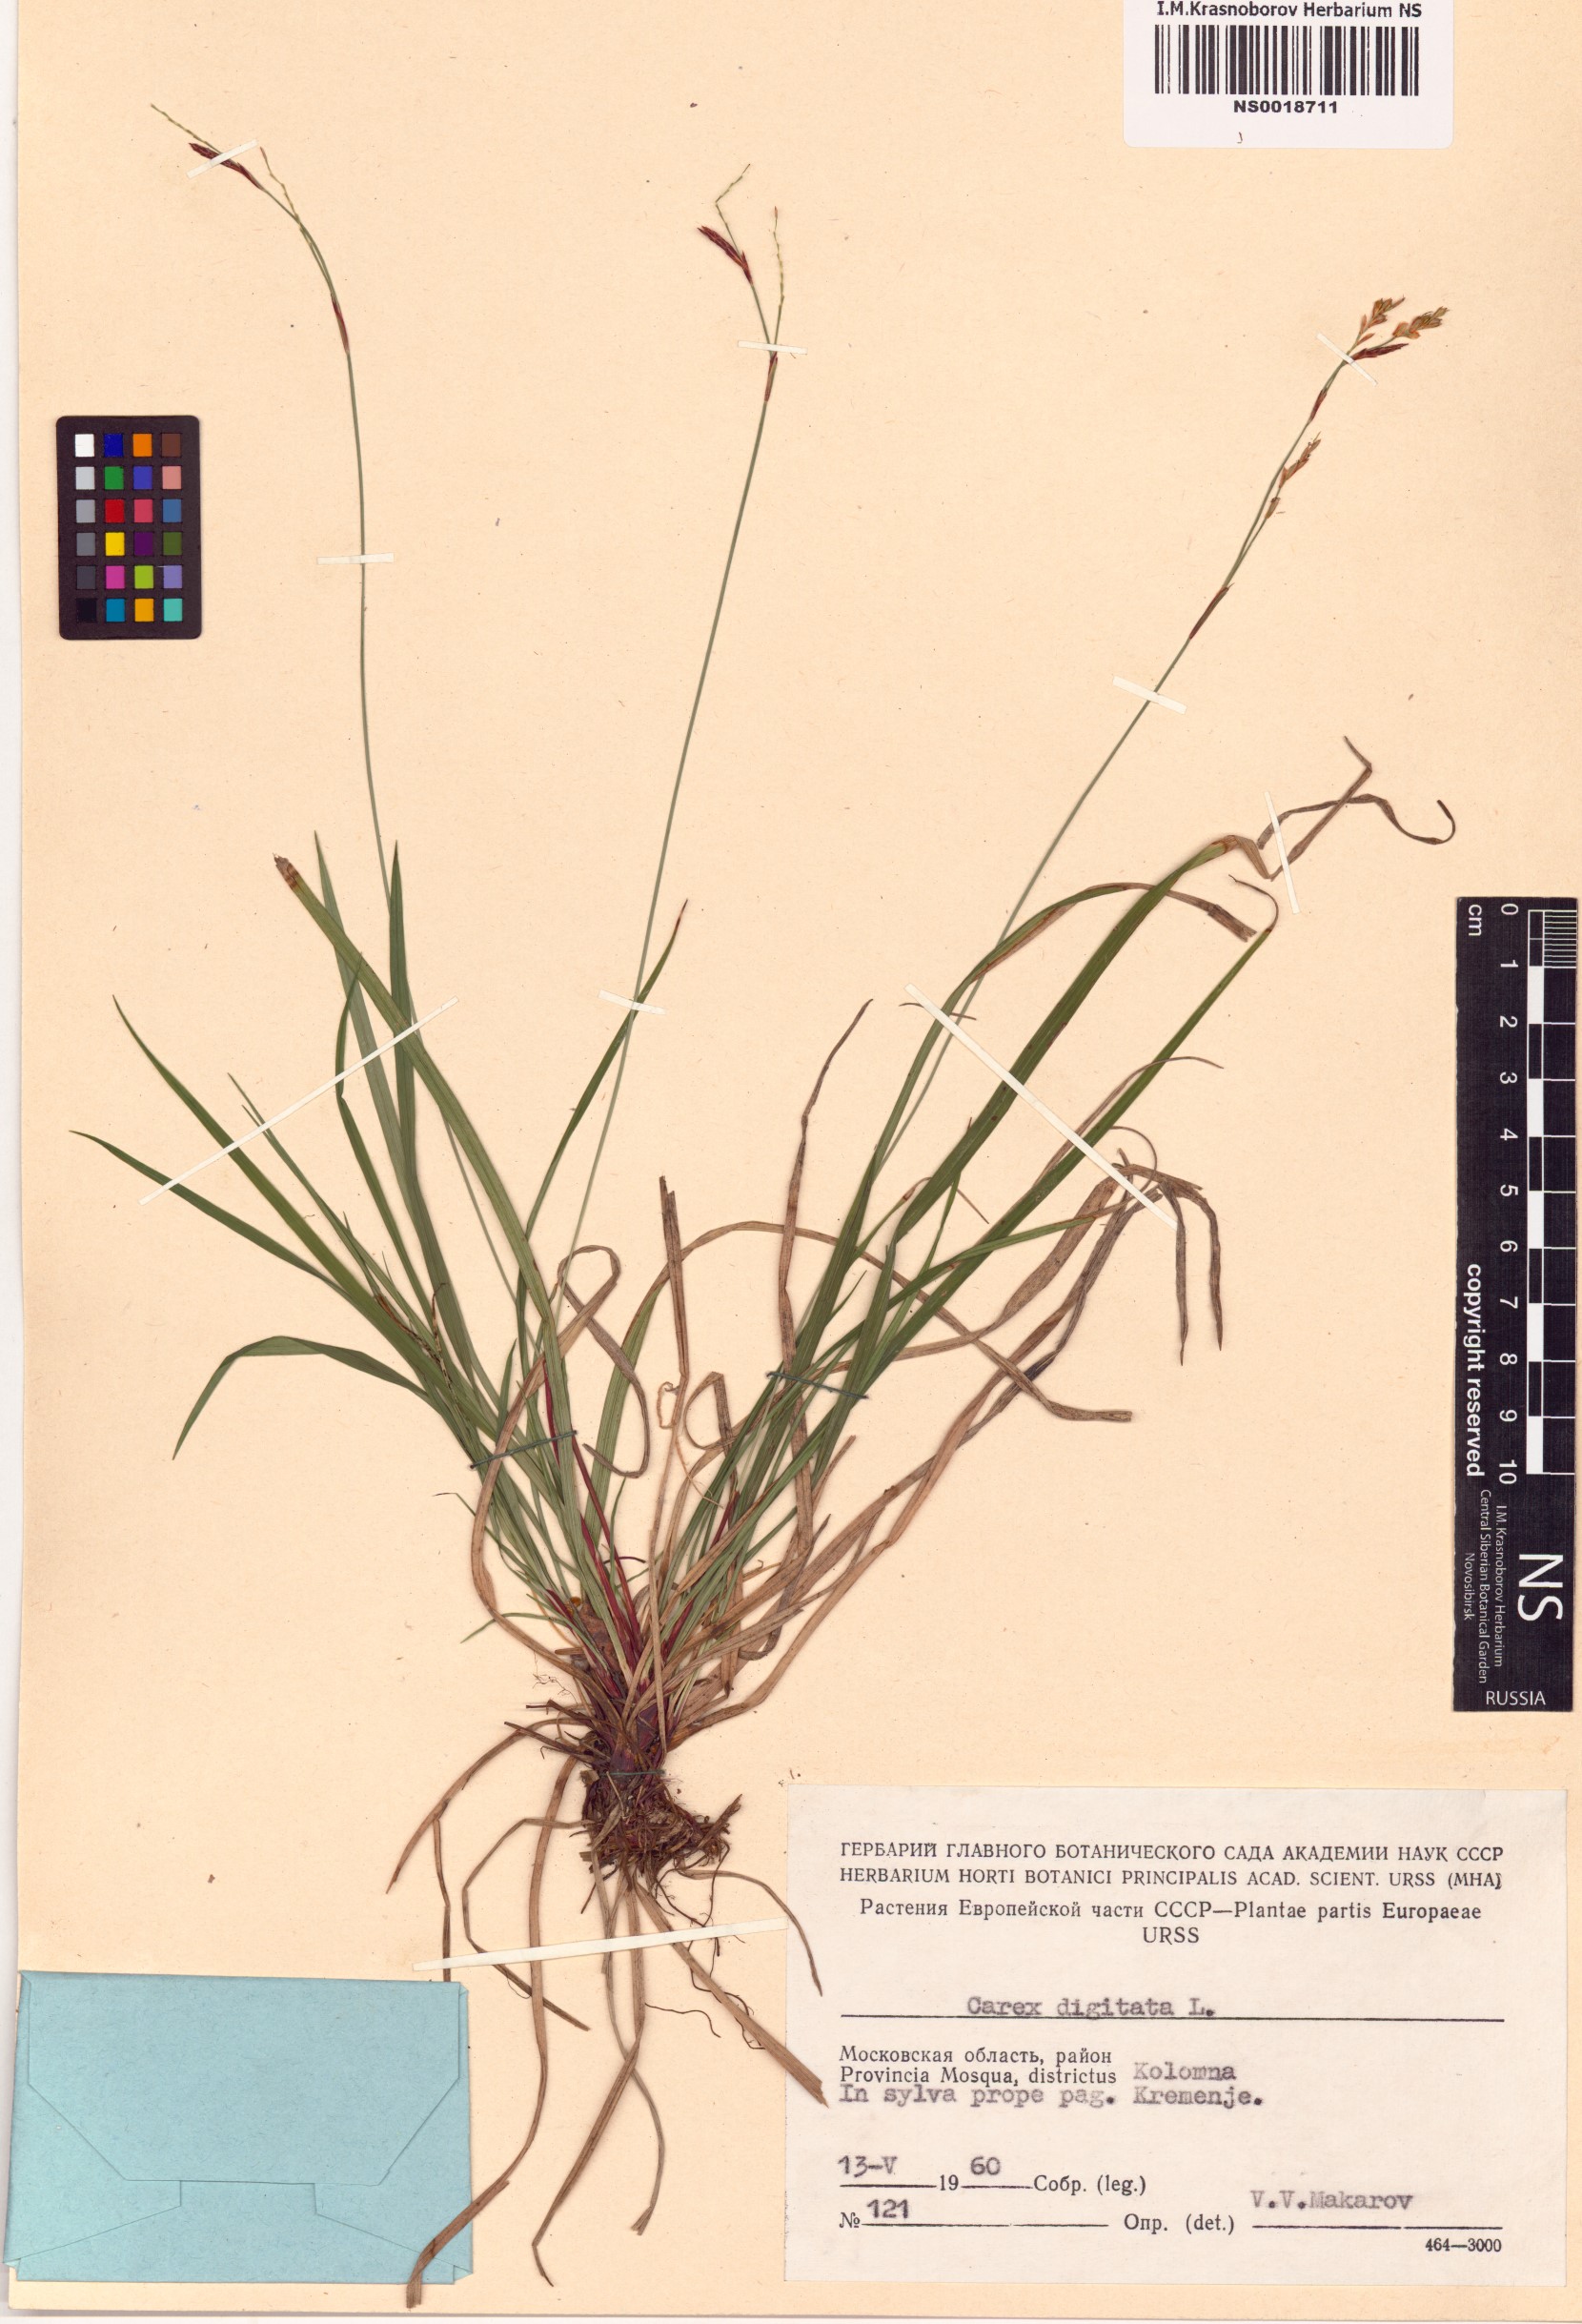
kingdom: Plantae
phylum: Tracheophyta
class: Liliopsida
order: Poales
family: Cyperaceae
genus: Carex
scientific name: Carex digitata
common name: Fingered sedge
